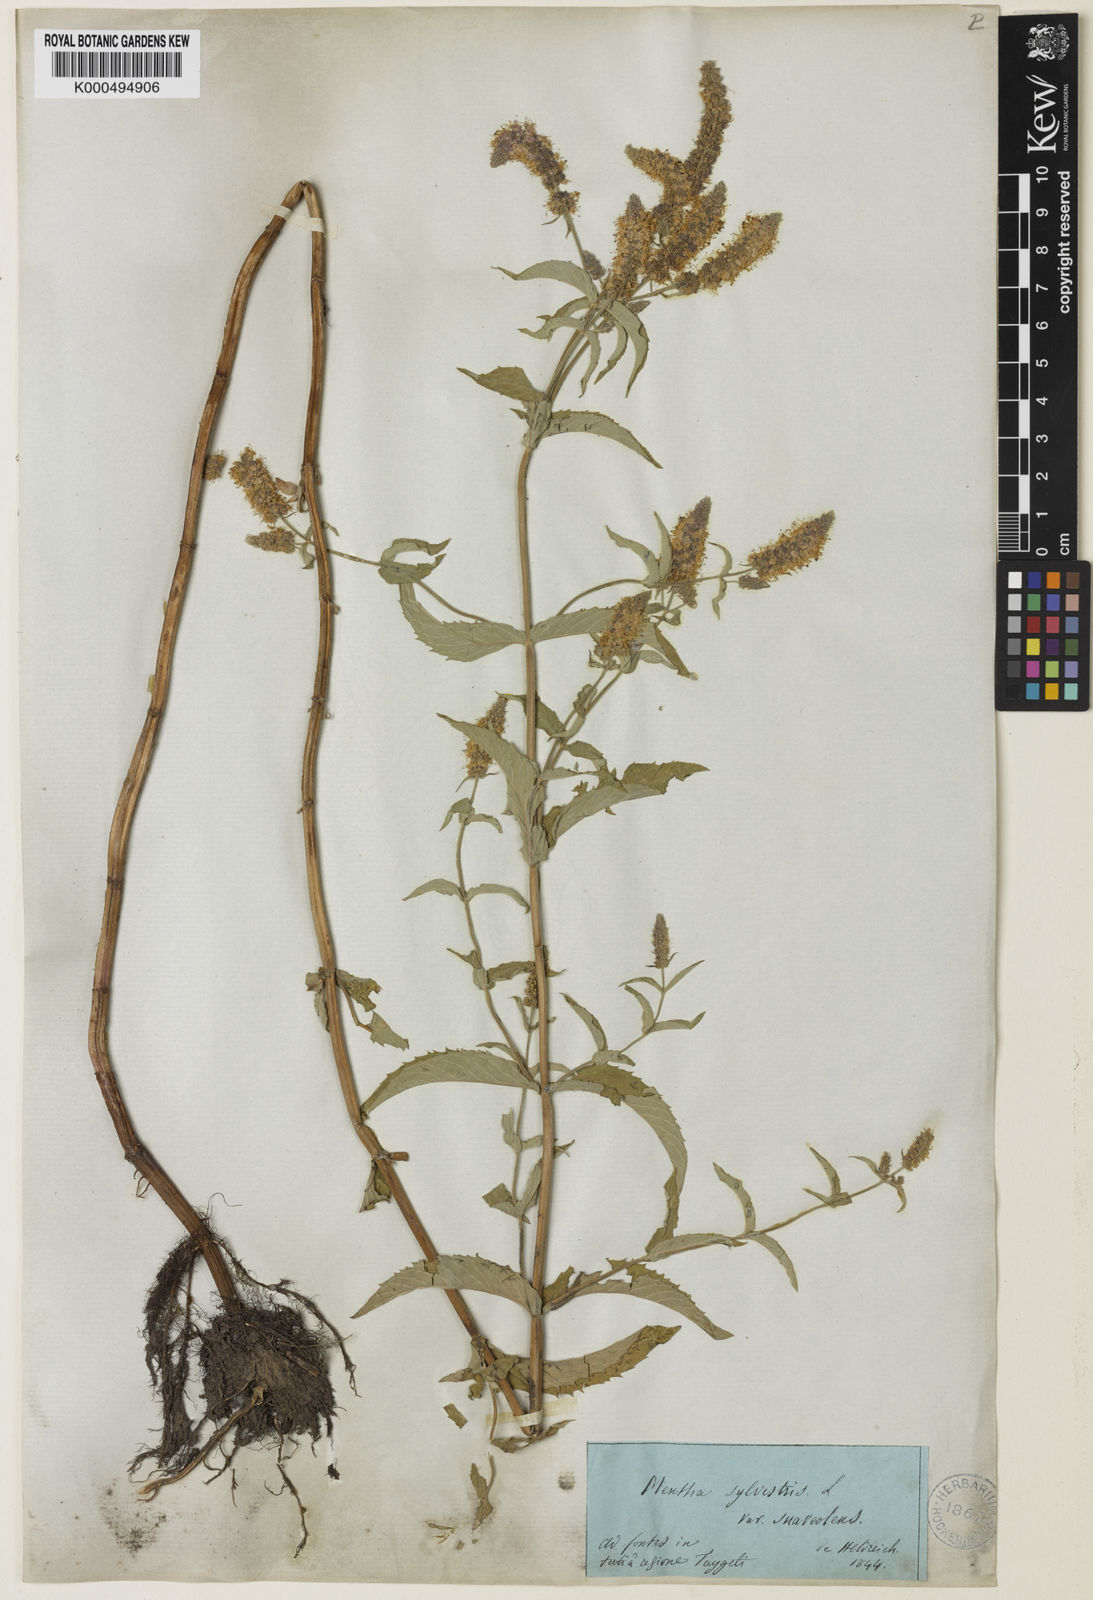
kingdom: Plantae
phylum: Tracheophyta
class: Magnoliopsida
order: Lamiales
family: Lamiaceae
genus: Mentha
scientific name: Mentha
